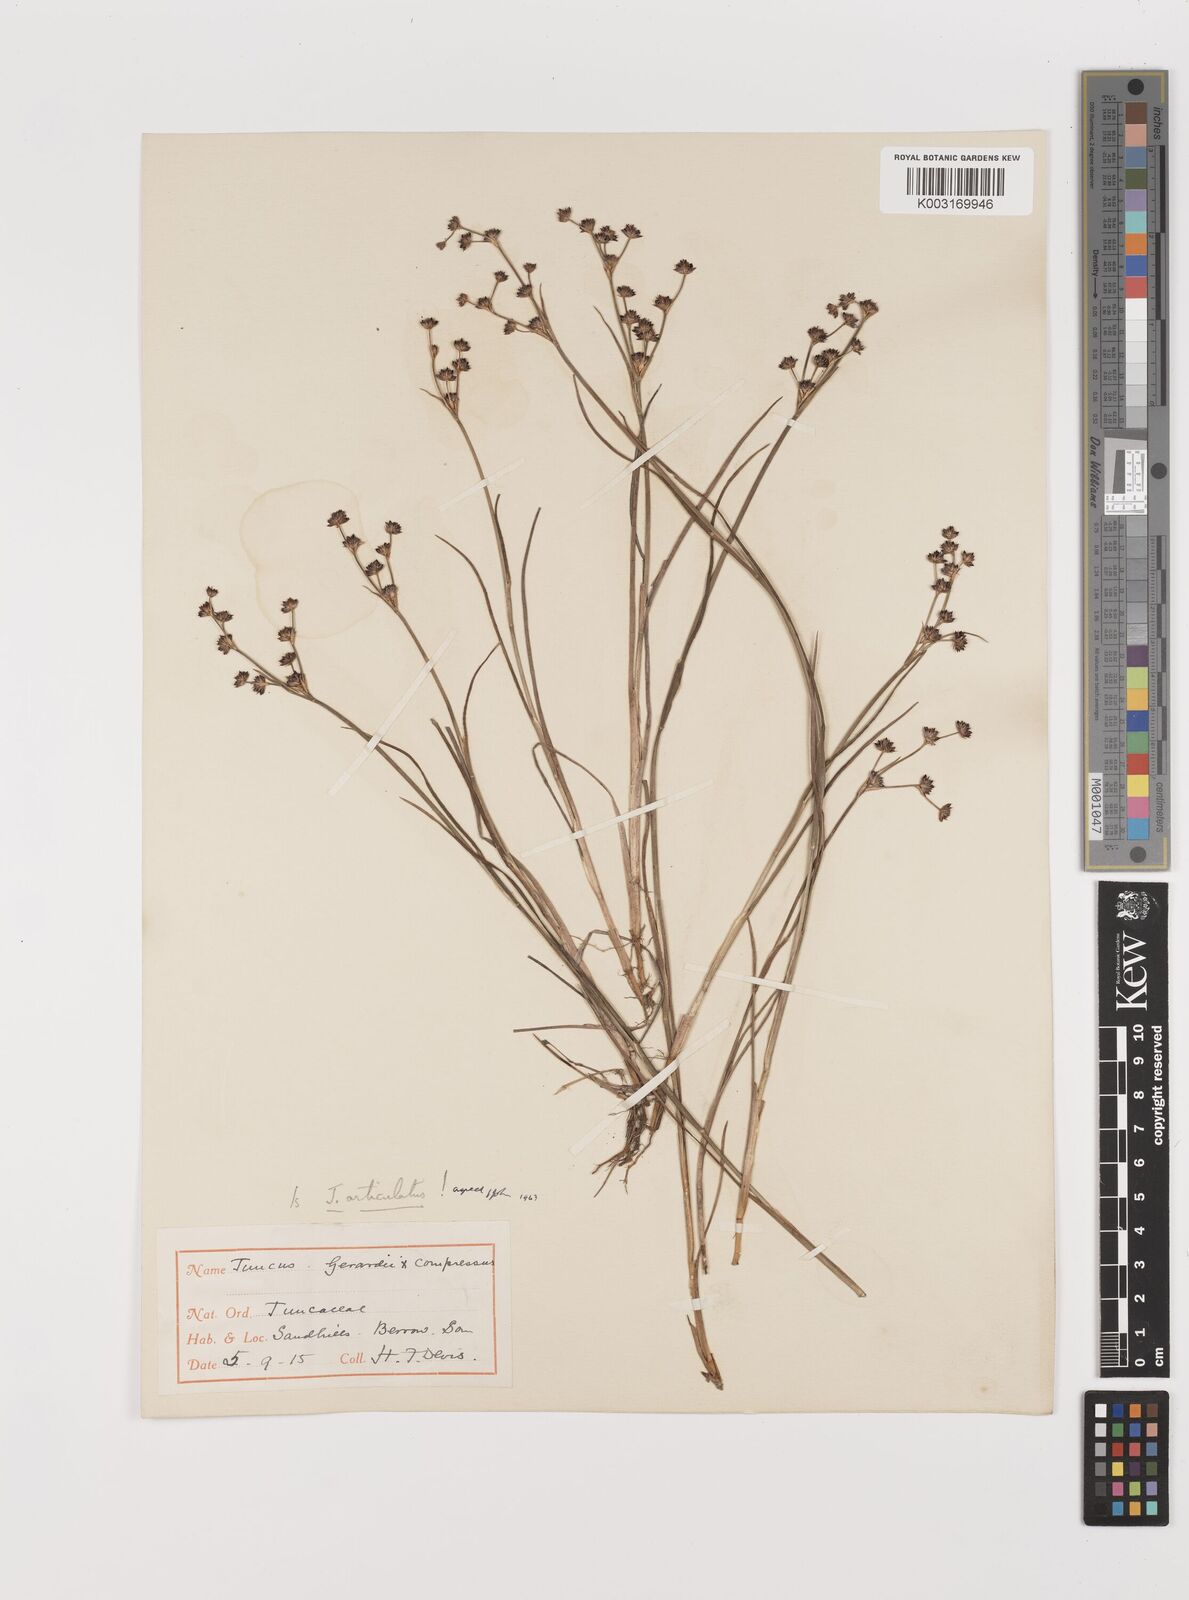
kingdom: Plantae
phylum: Tracheophyta
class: Liliopsida
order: Poales
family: Juncaceae
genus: Juncus
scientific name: Juncus articulatus
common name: Jointed rush
